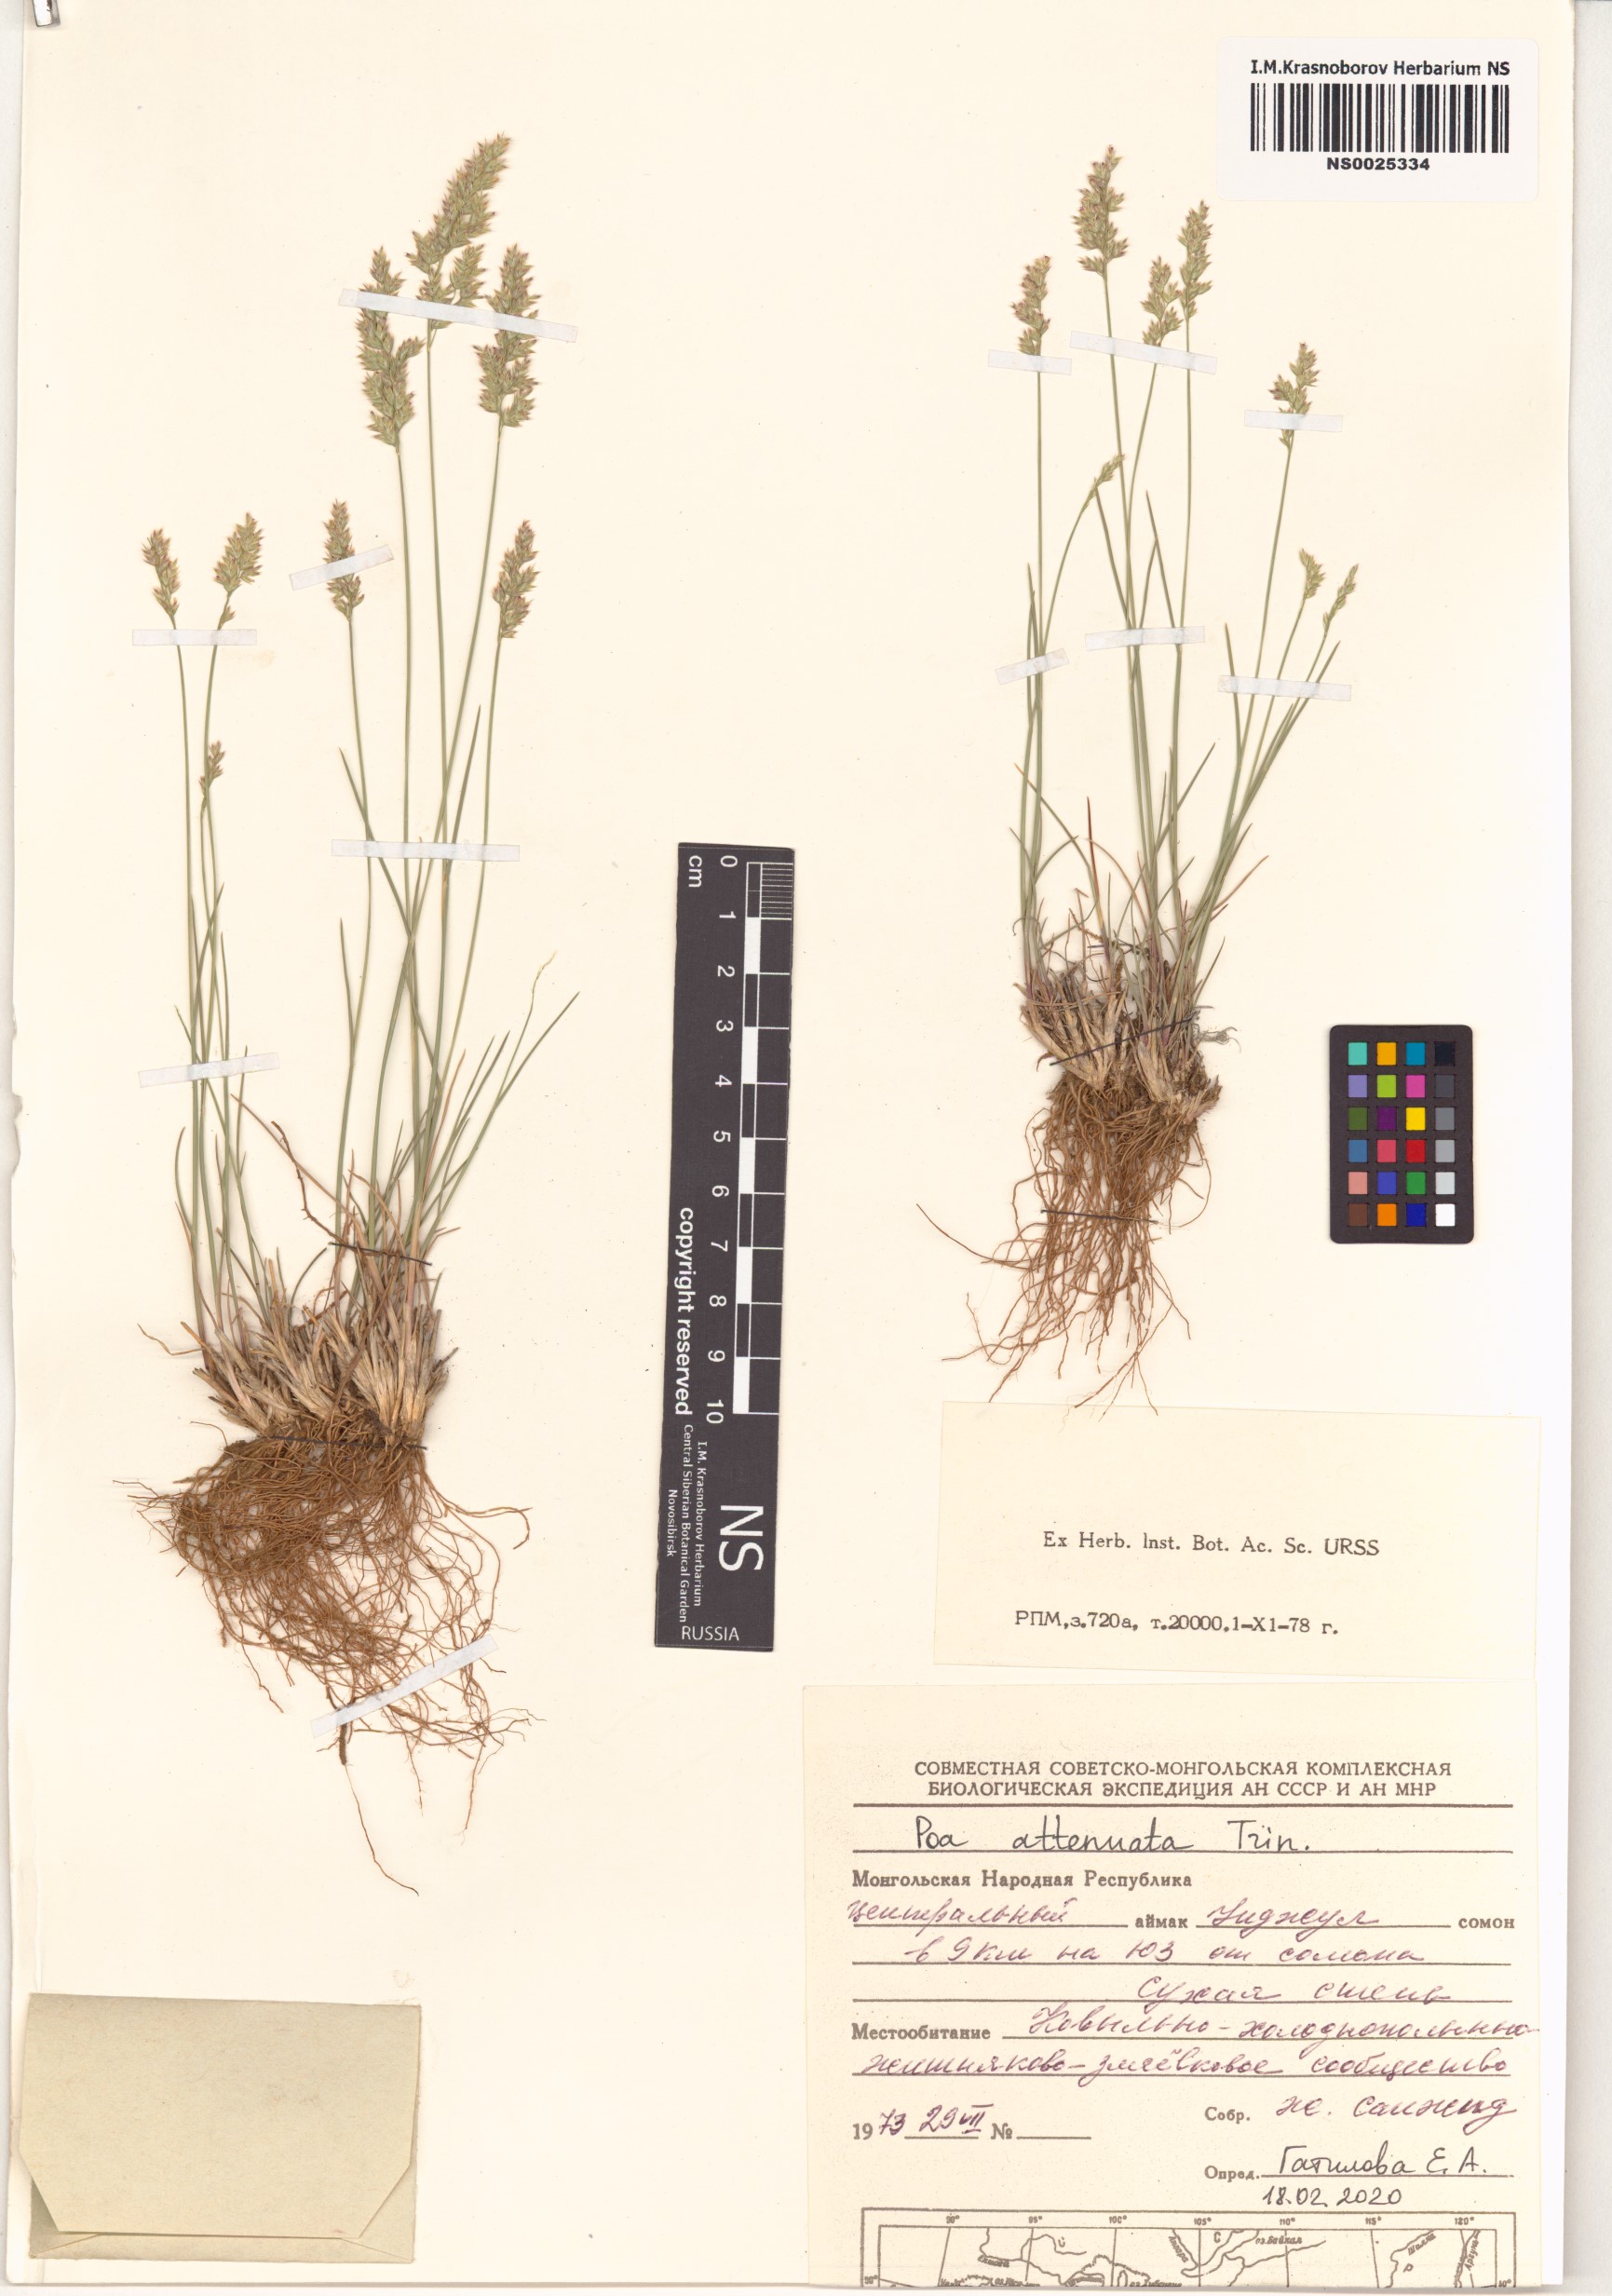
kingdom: Plantae
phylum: Tracheophyta
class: Liliopsida
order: Poales
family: Poaceae
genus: Poa
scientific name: Poa attenuata
